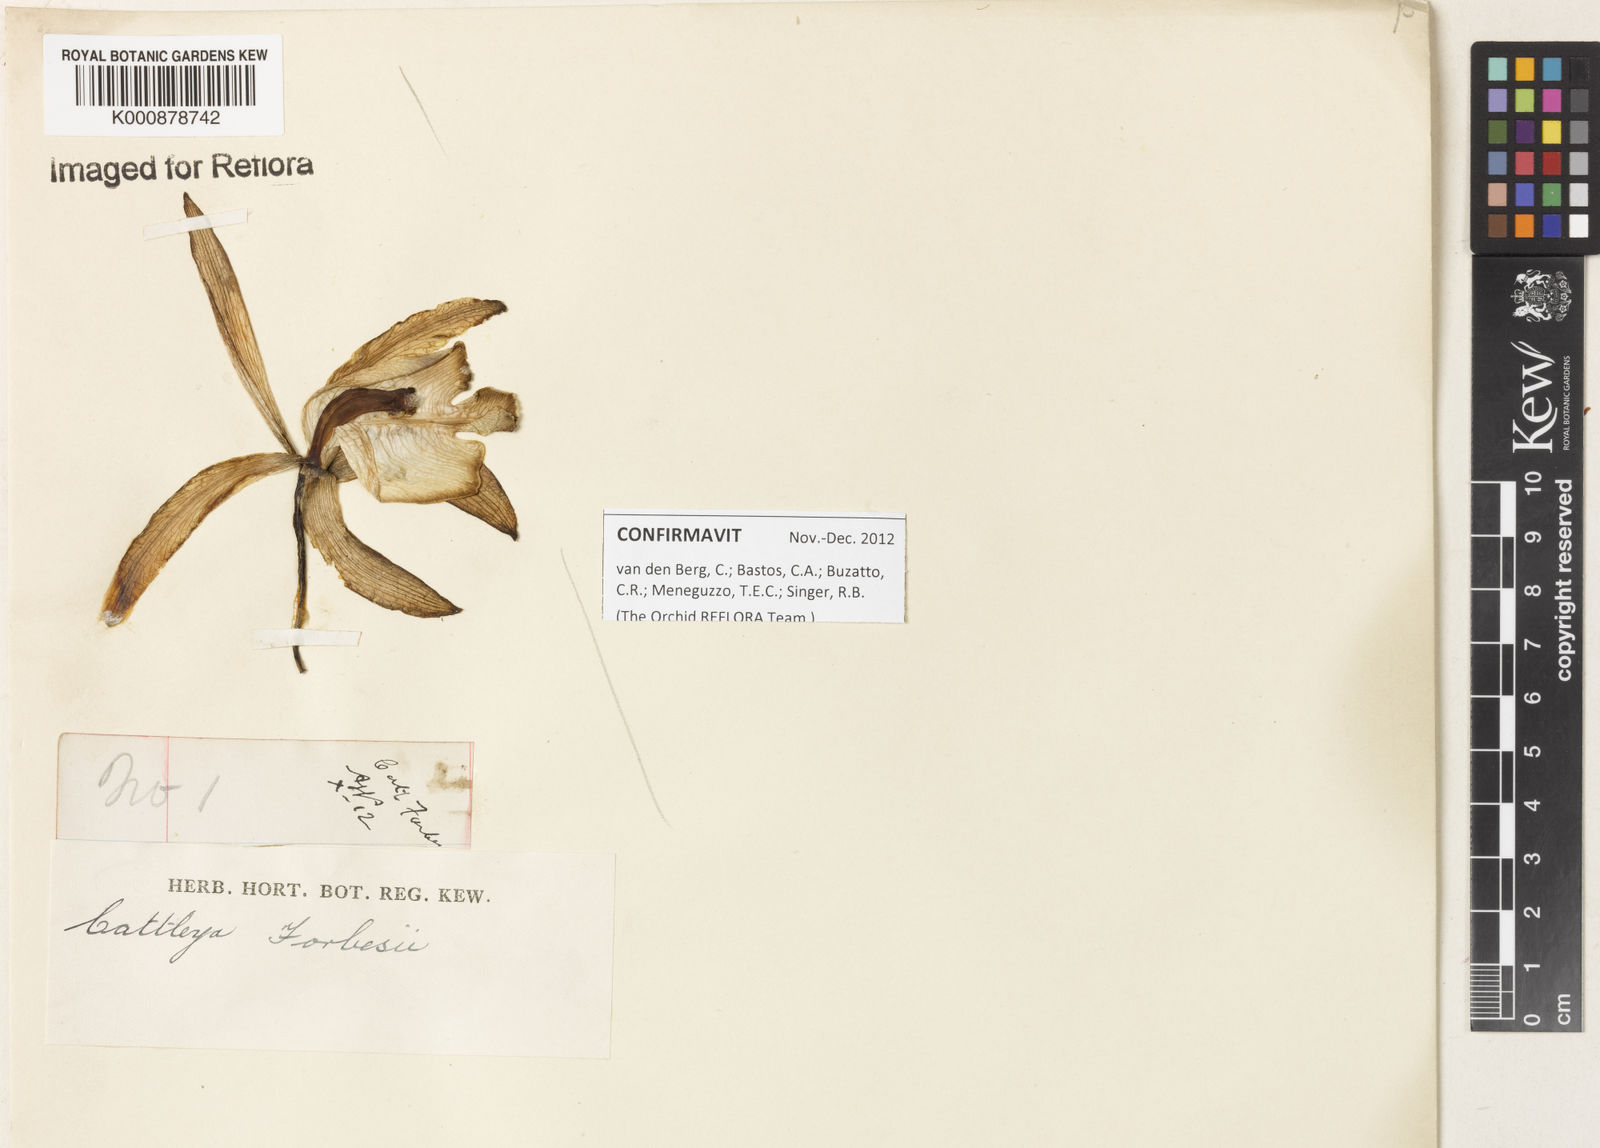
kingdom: Plantae
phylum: Tracheophyta
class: Liliopsida
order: Asparagales
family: Orchidaceae
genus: Cattleya
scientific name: Cattleya forbesii
